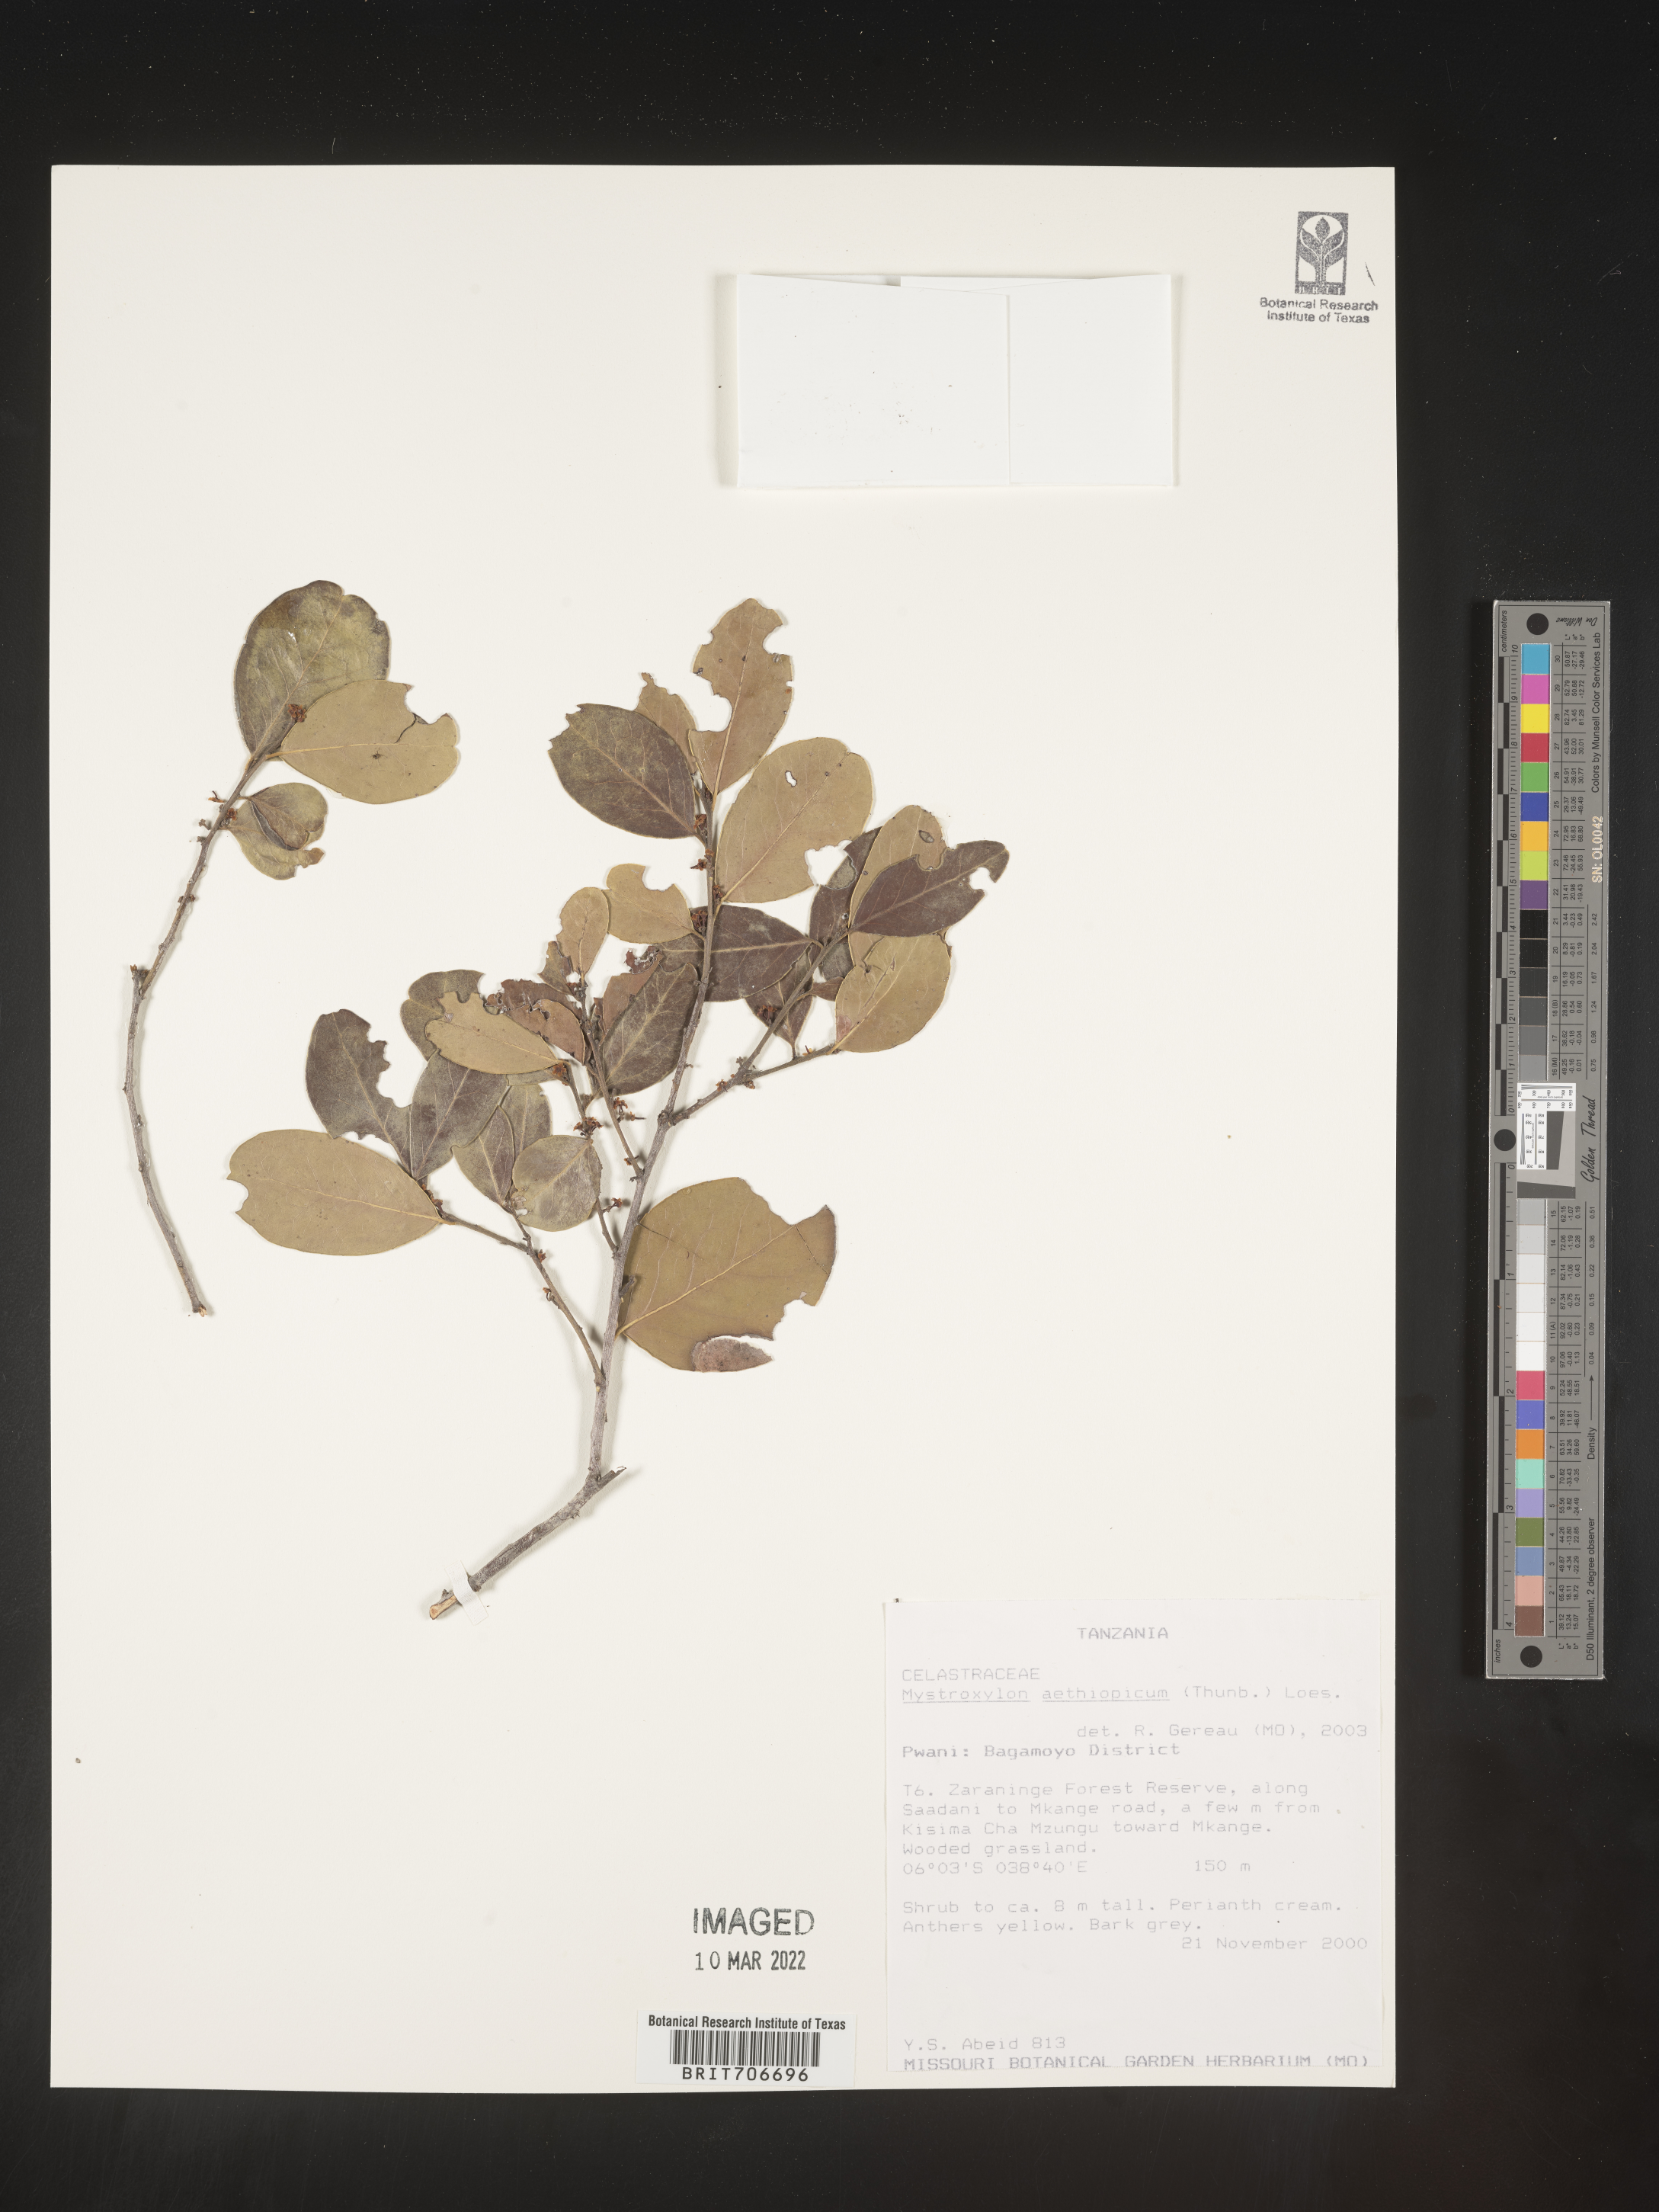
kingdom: Plantae
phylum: Tracheophyta
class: Magnoliopsida
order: Celastrales
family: Celastraceae
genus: Mystroxylon
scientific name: Mystroxylon
